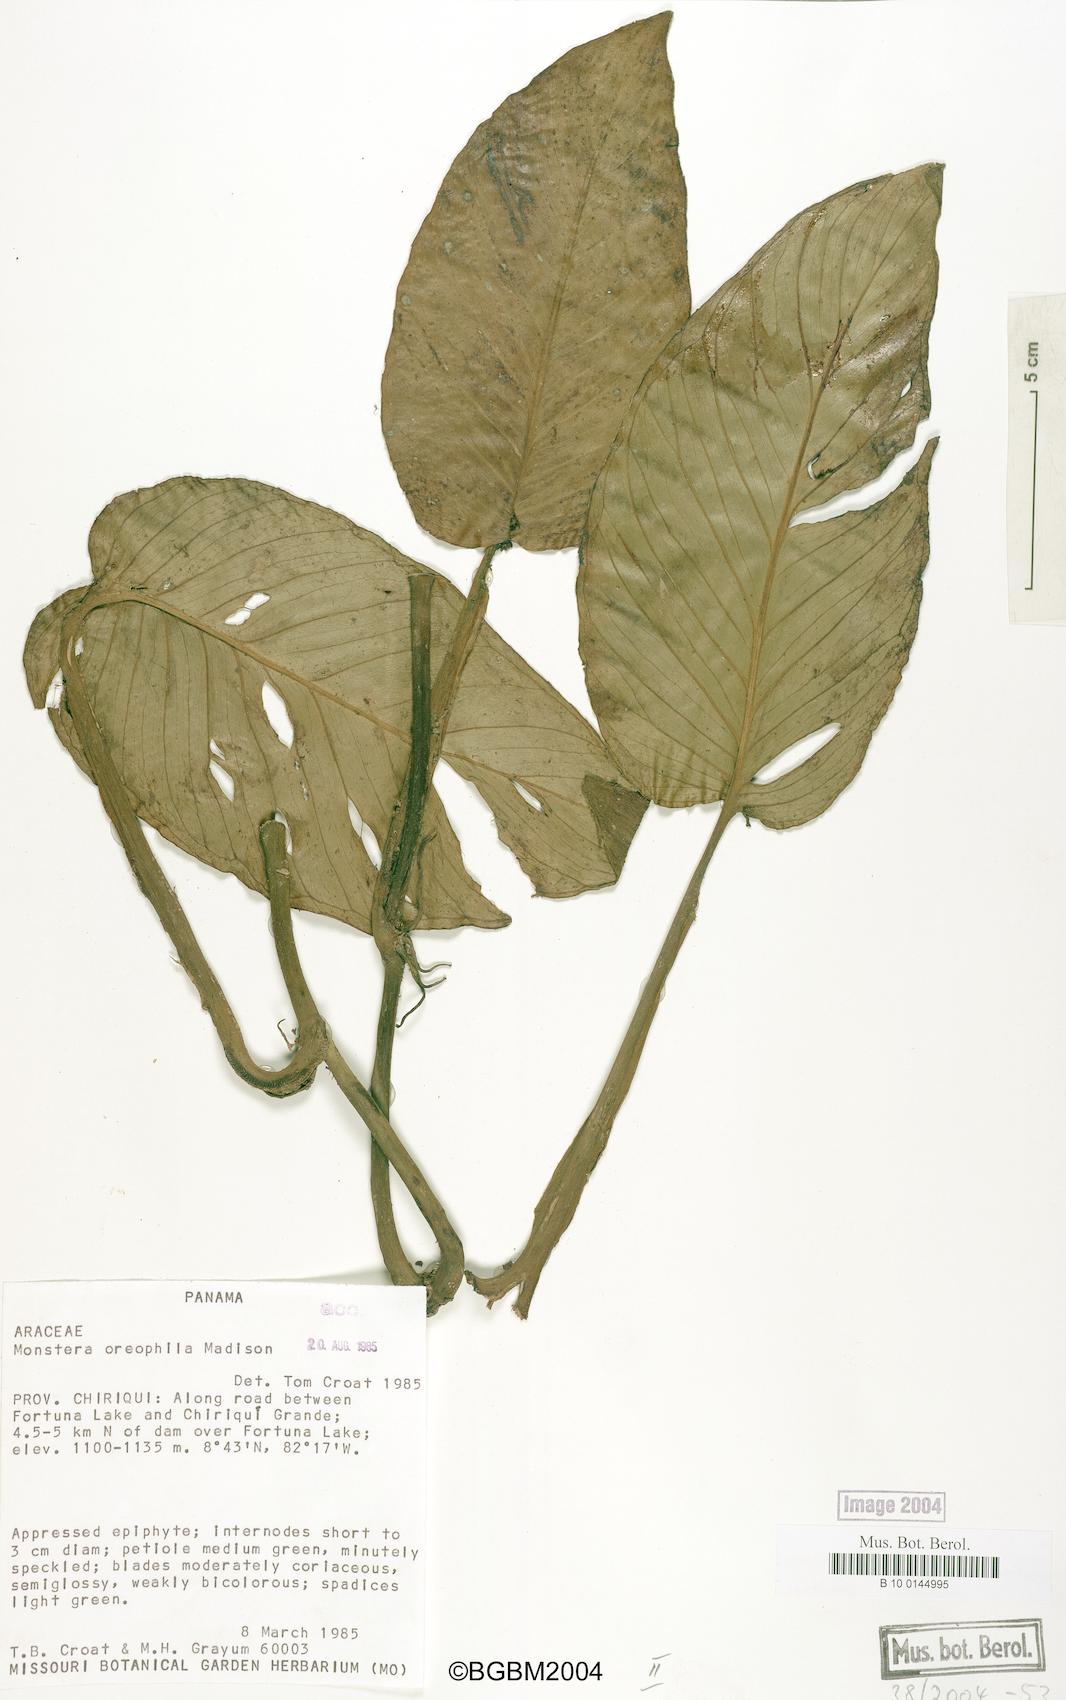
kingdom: Plantae
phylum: Tracheophyta
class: Liliopsida
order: Alismatales
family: Araceae
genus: Monstera
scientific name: Monstera oreophila
